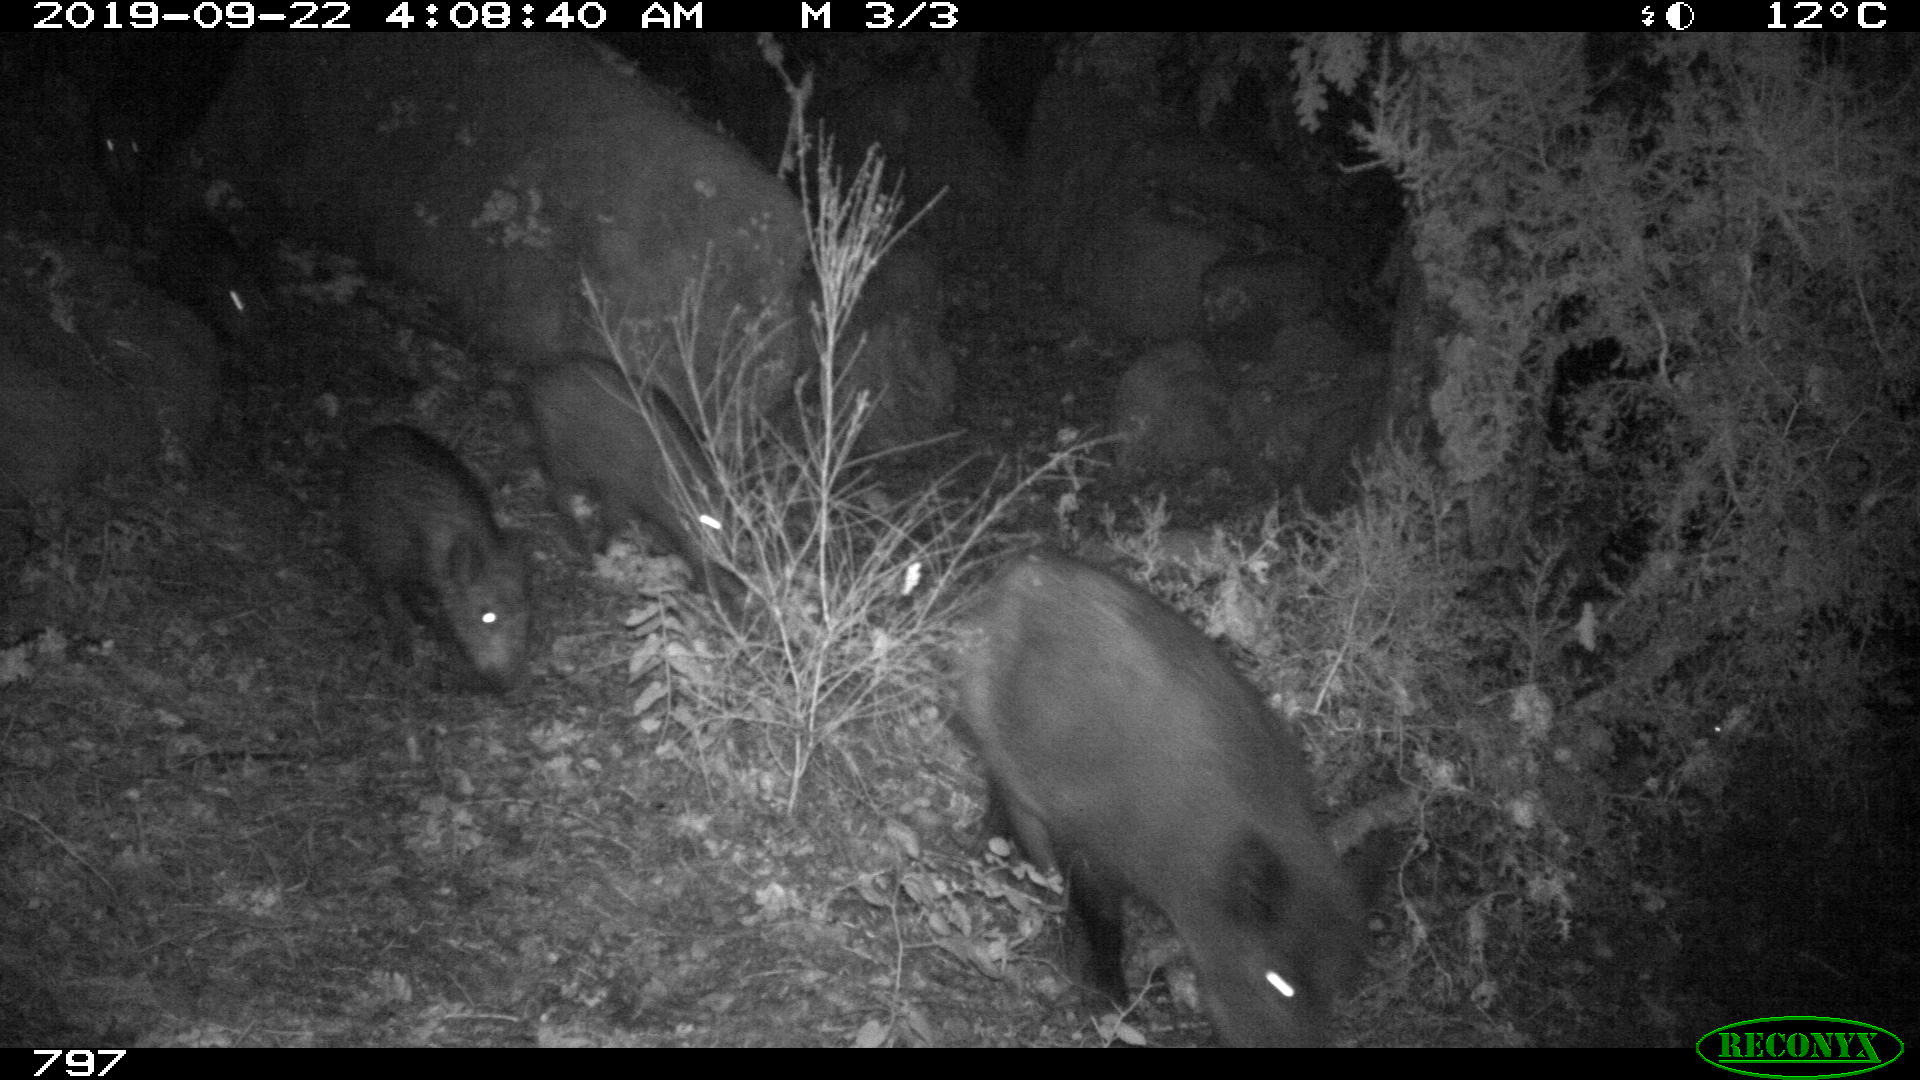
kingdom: Animalia
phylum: Chordata
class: Mammalia
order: Artiodactyla
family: Suidae
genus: Sus
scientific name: Sus scrofa
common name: Wild boar
